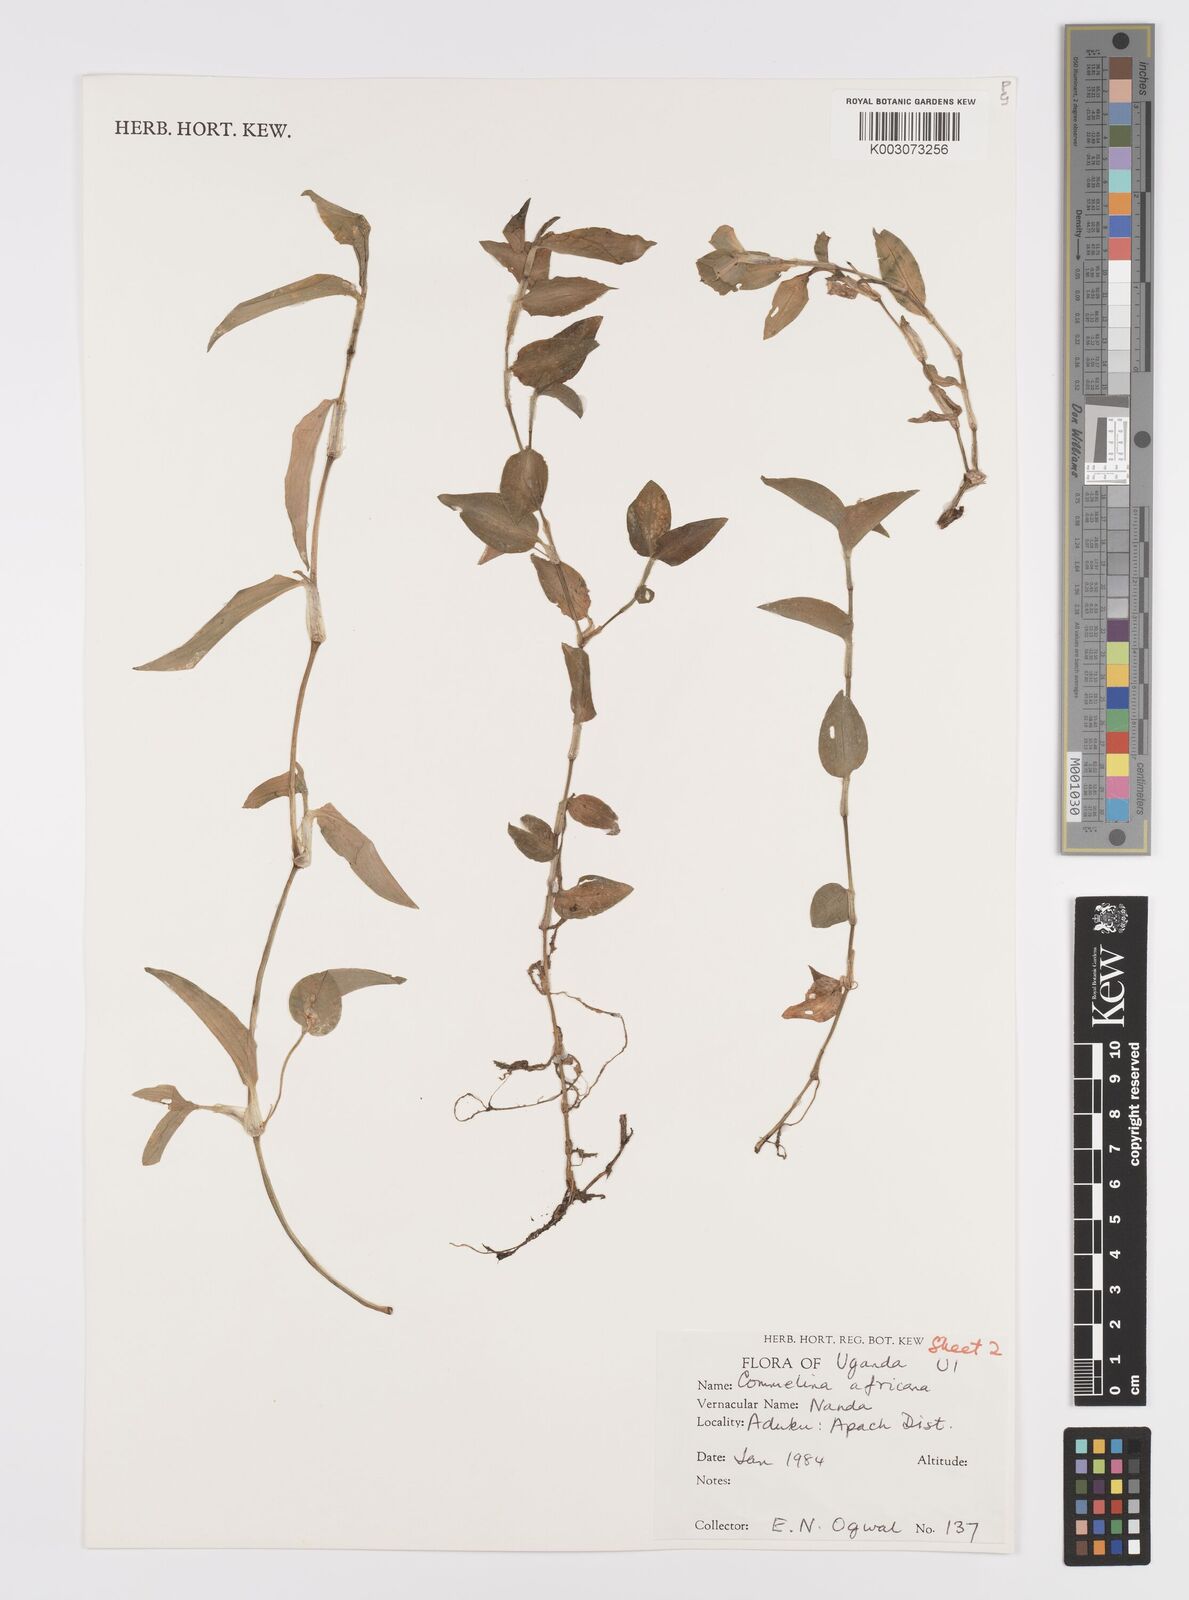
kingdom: Plantae
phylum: Tracheophyta
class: Liliopsida
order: Commelinales
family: Commelinaceae
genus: Commelina
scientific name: Commelina africana
